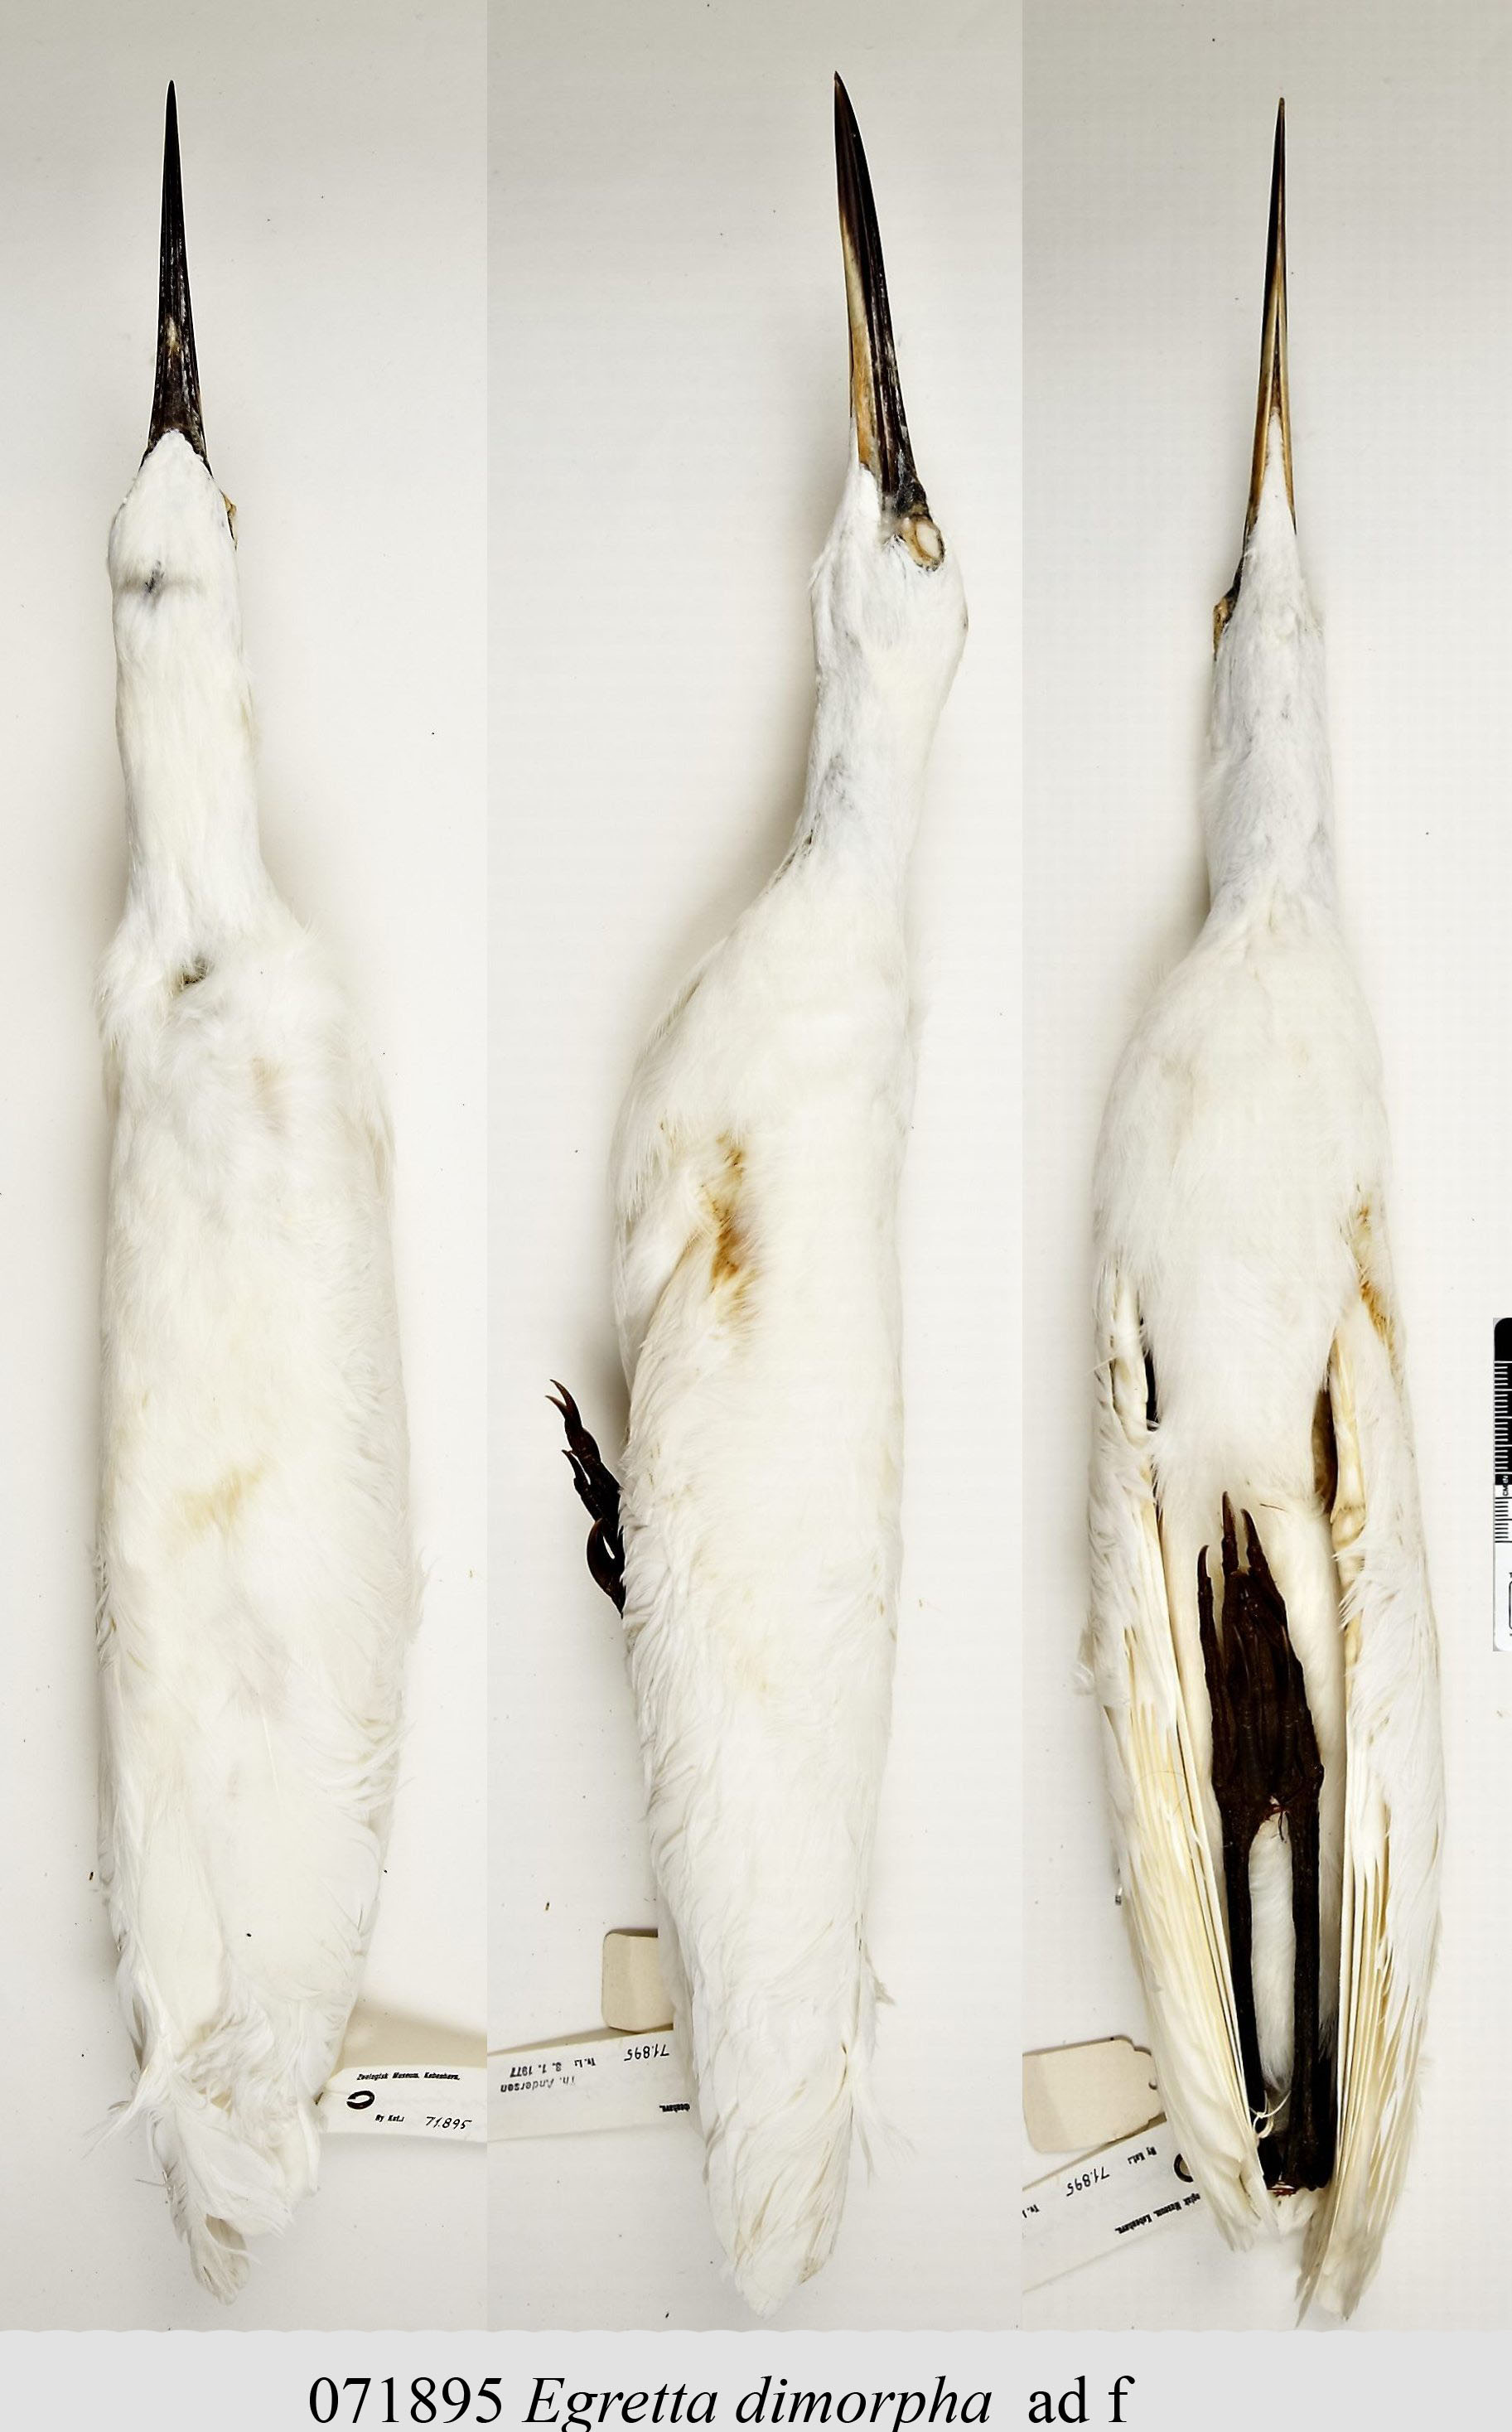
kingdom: Animalia
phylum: Chordata
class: Aves
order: Pelecaniformes
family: Ardeidae
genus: Egretta
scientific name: Egretta dimorpha
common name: Dimorphic egret
